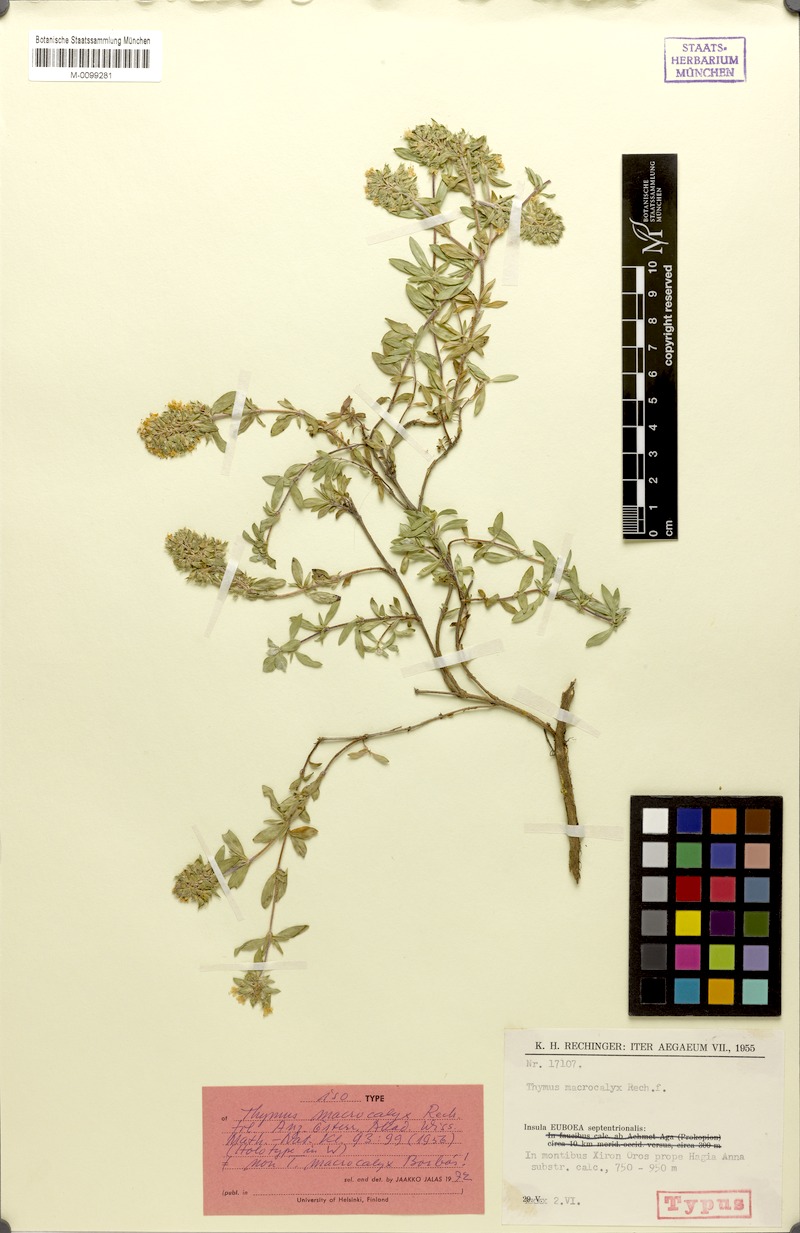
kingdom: Plantae
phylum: Tracheophyta
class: Magnoliopsida
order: Lamiales
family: Lamiaceae
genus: Thymus
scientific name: Thymus macrocalyx
